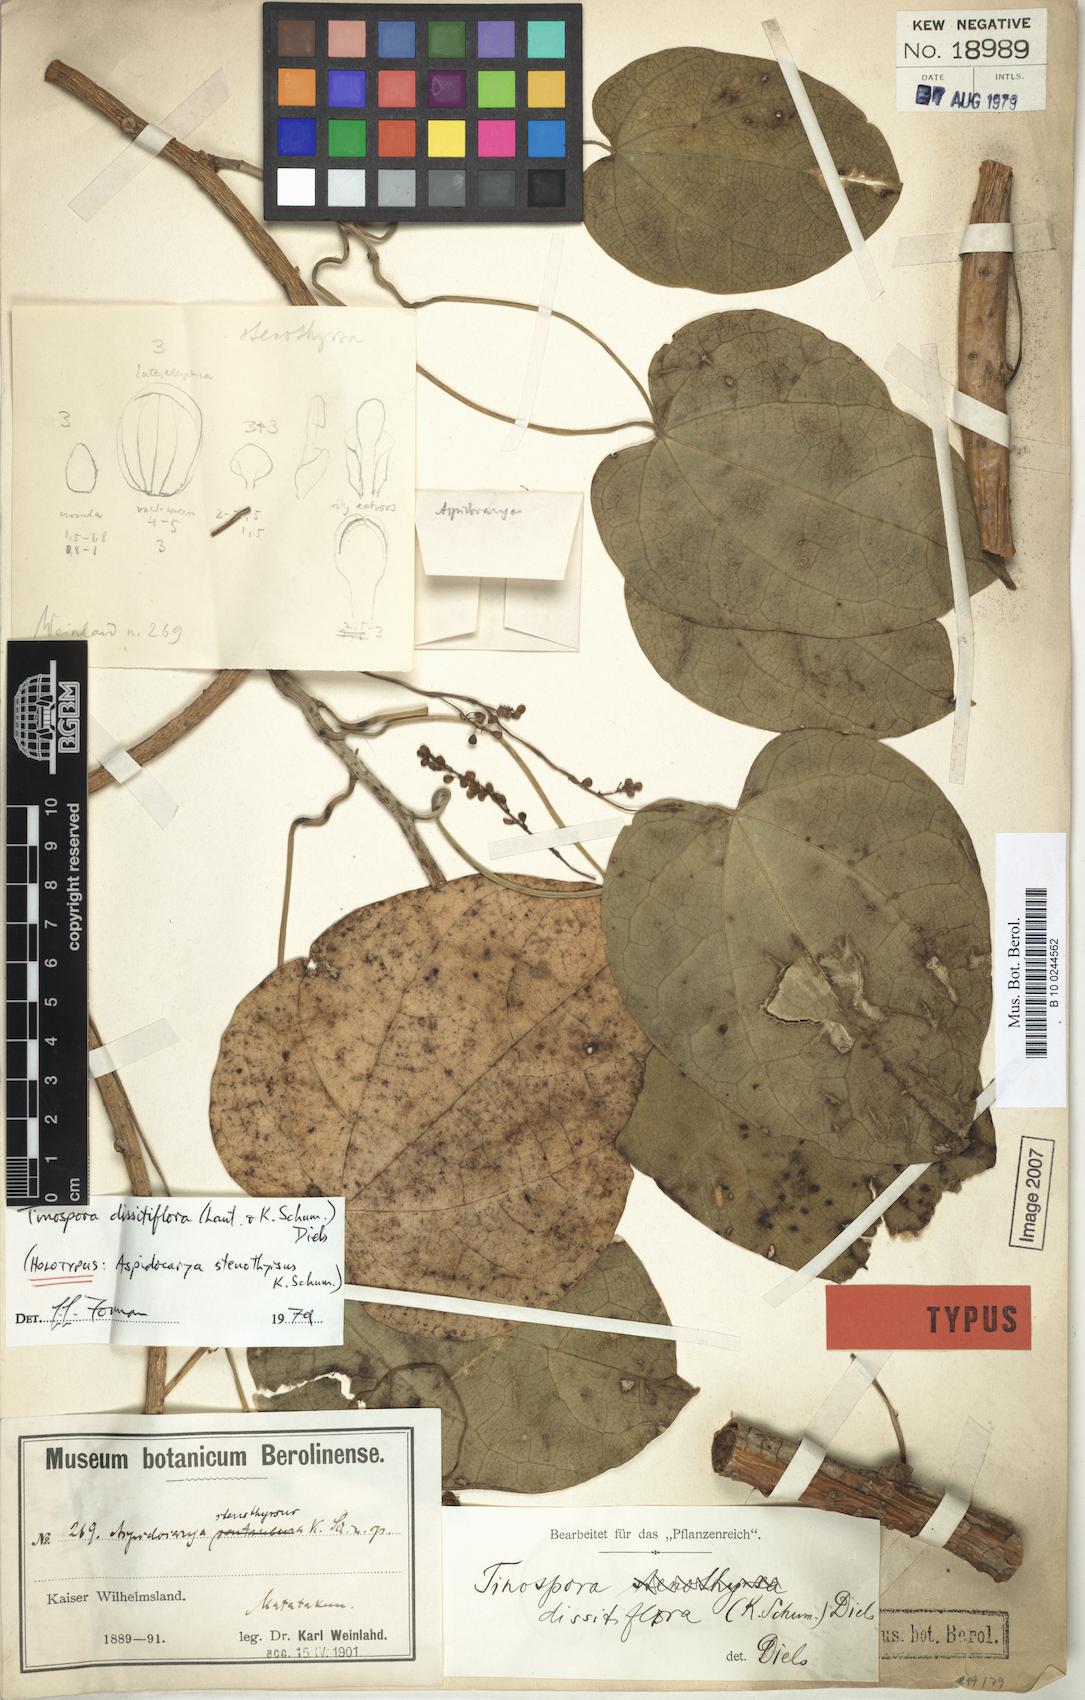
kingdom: Plantae
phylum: Tracheophyta
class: Magnoliopsida
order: Ranunculales
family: Menispermaceae
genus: Tinospora
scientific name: Tinospora dissitiflora
